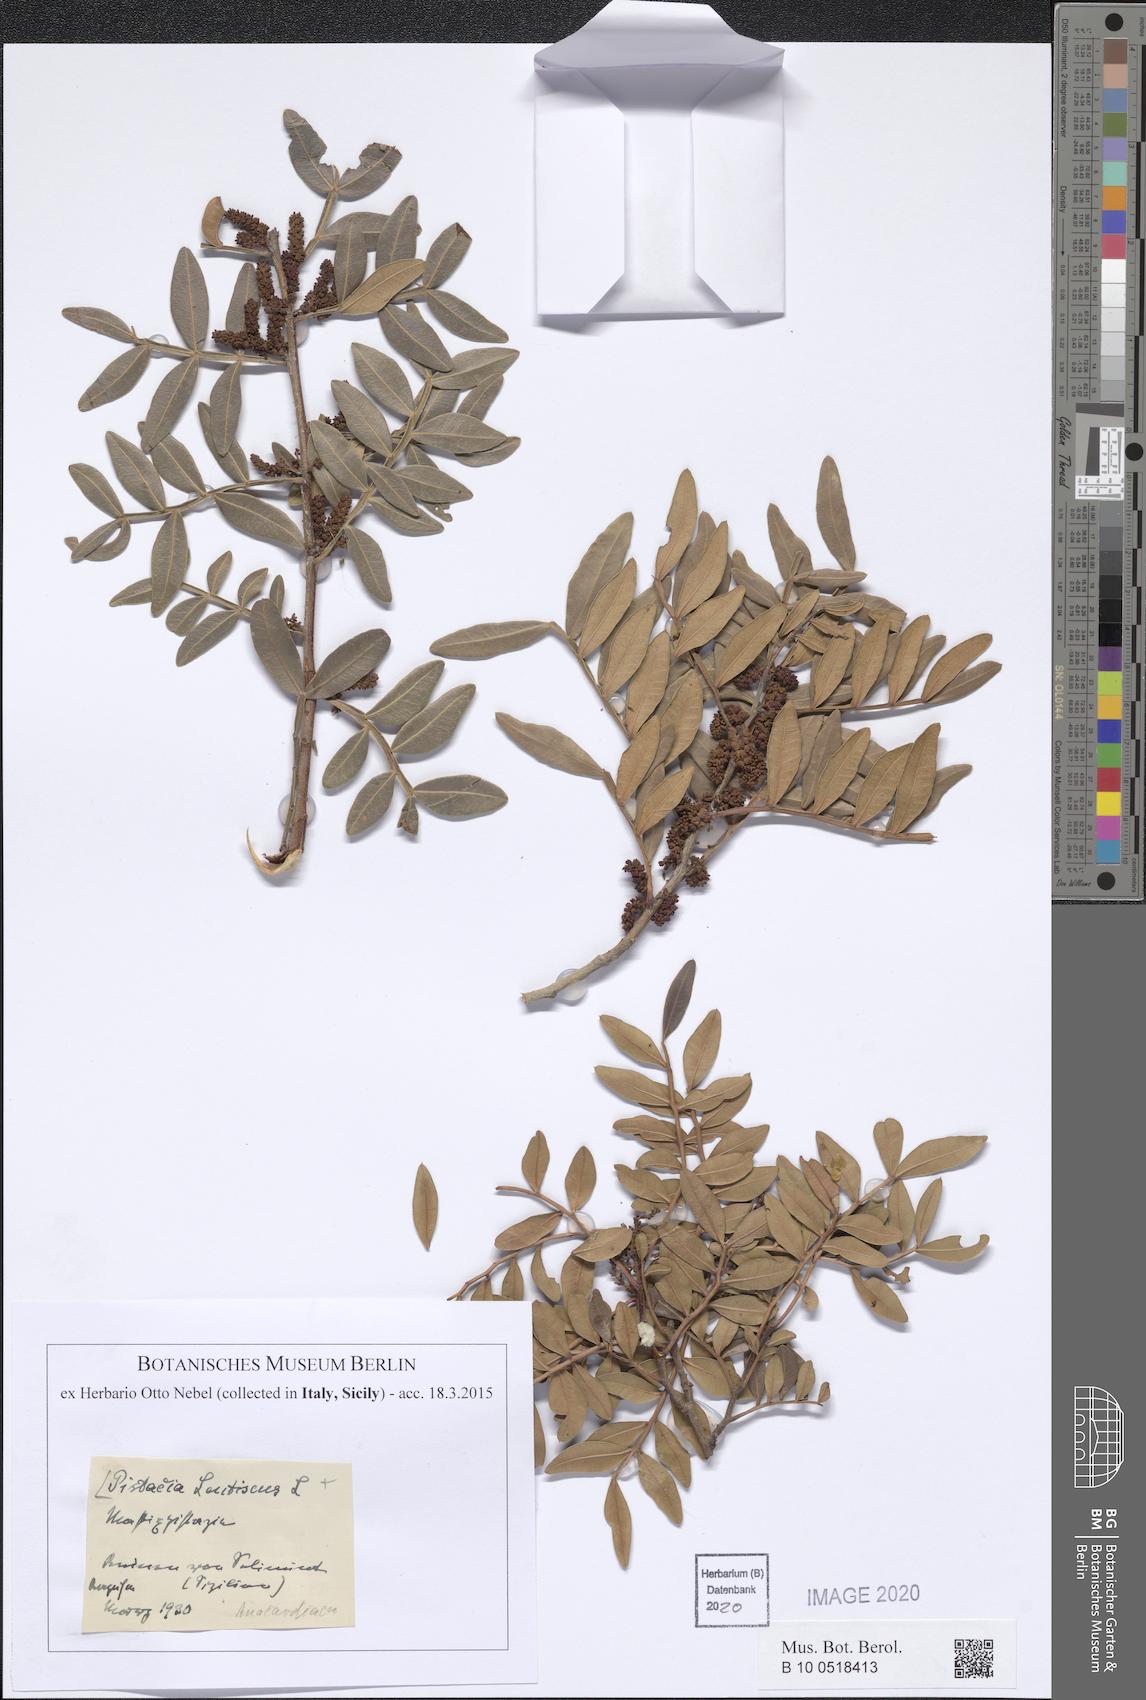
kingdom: Plantae
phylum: Tracheophyta
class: Magnoliopsida
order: Sapindales
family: Anacardiaceae
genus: Pistacia
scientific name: Pistacia lentiscus
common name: Lentisk
